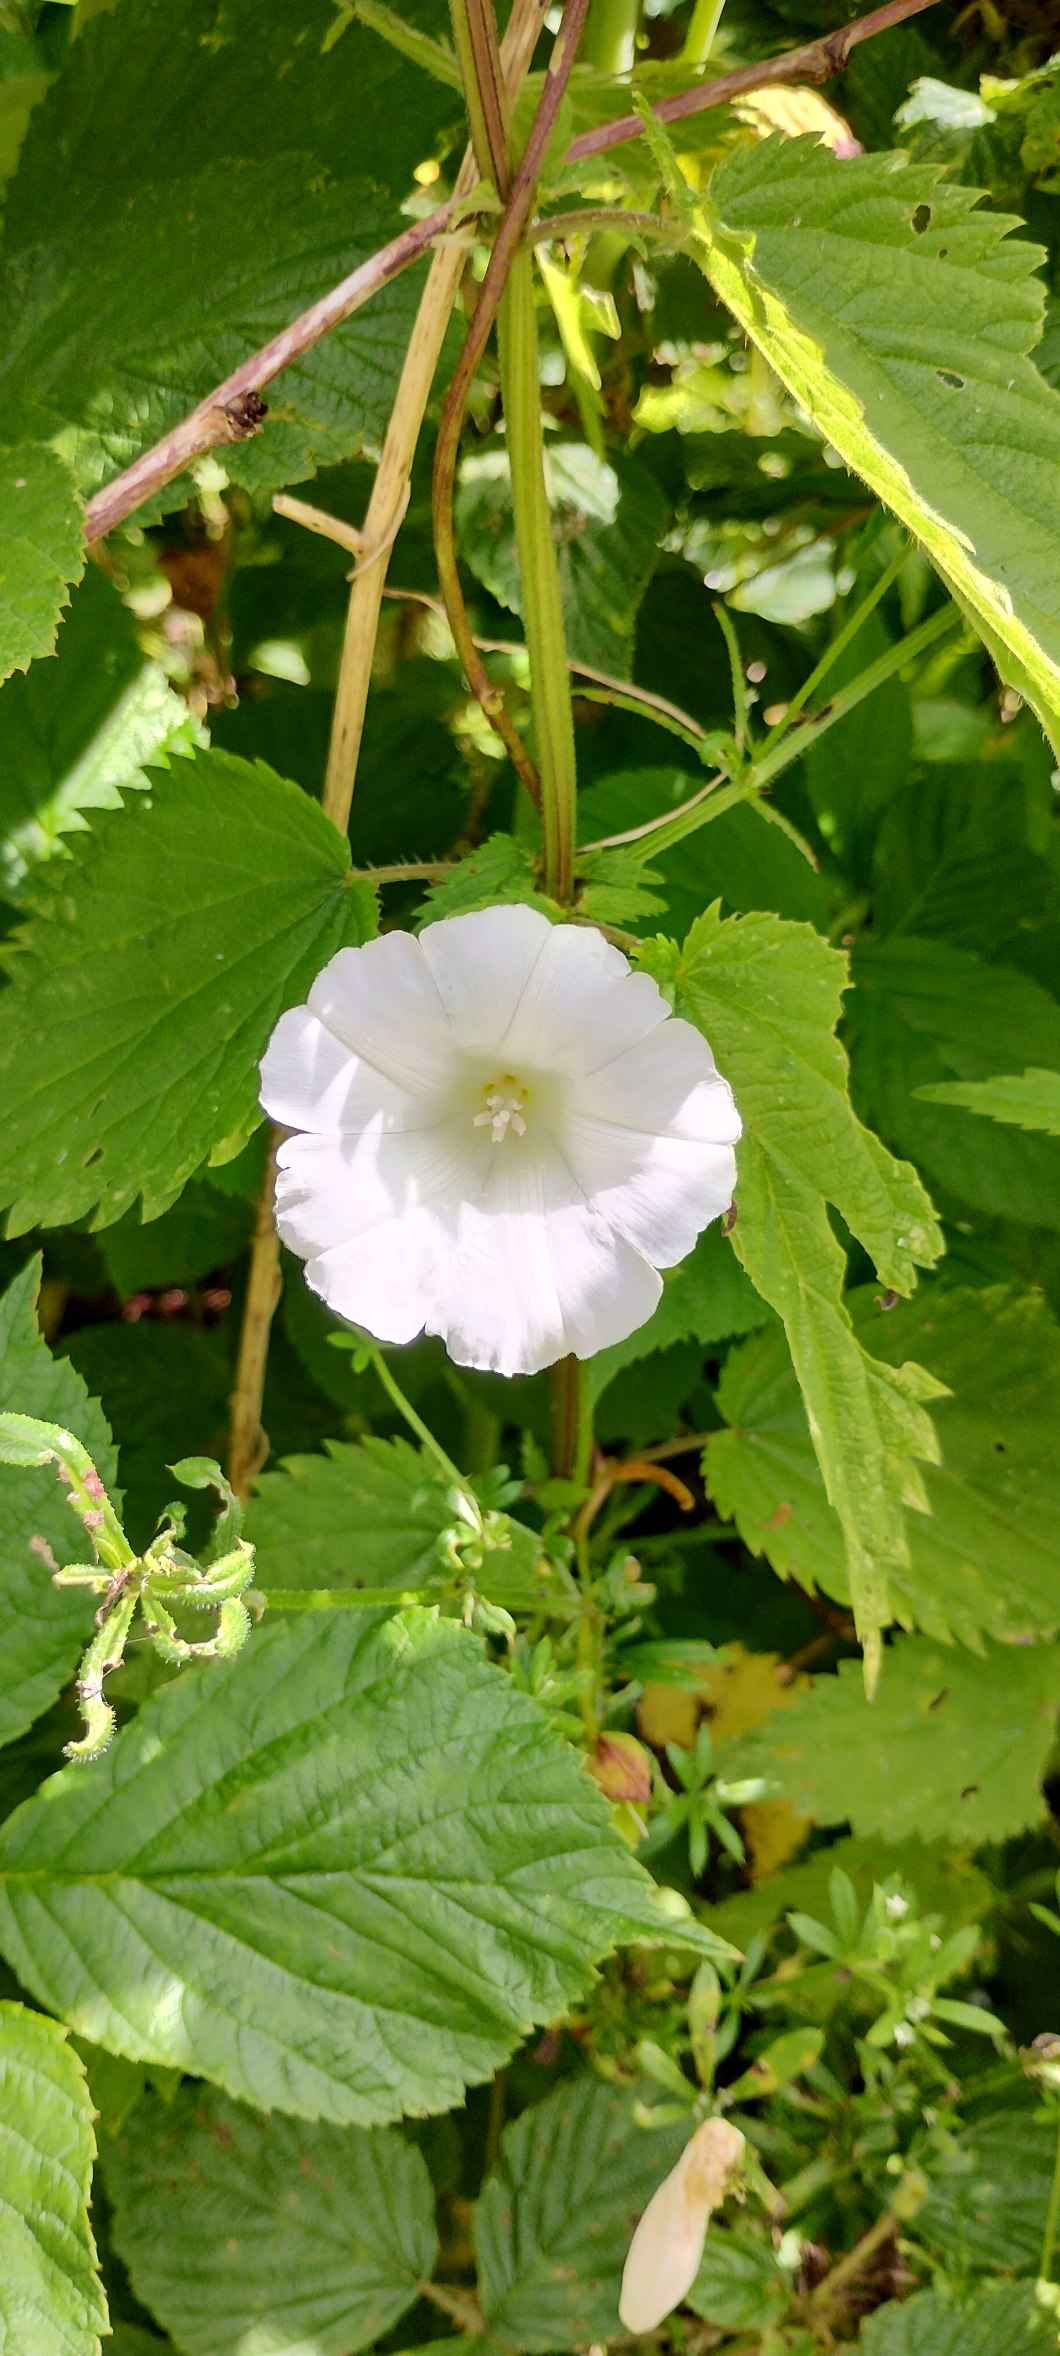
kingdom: Plantae
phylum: Tracheophyta
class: Magnoliopsida
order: Solanales
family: Convolvulaceae
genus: Calystegia
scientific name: Calystegia sepium
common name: Gærde-snerle
